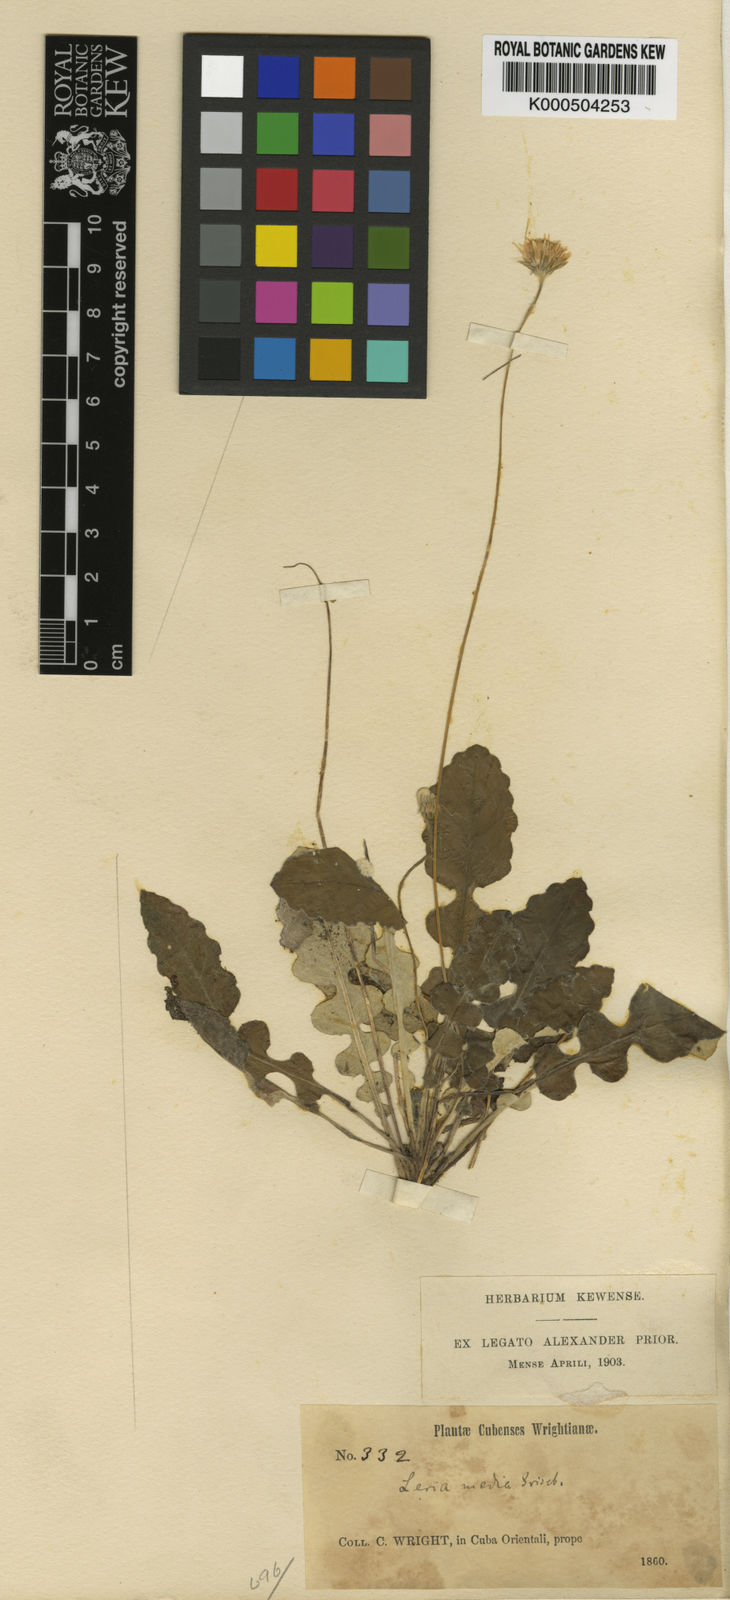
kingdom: Plantae
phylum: Tracheophyta
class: Magnoliopsida
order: Asterales
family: Asteraceae
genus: Chaptalia
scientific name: Chaptalia media
